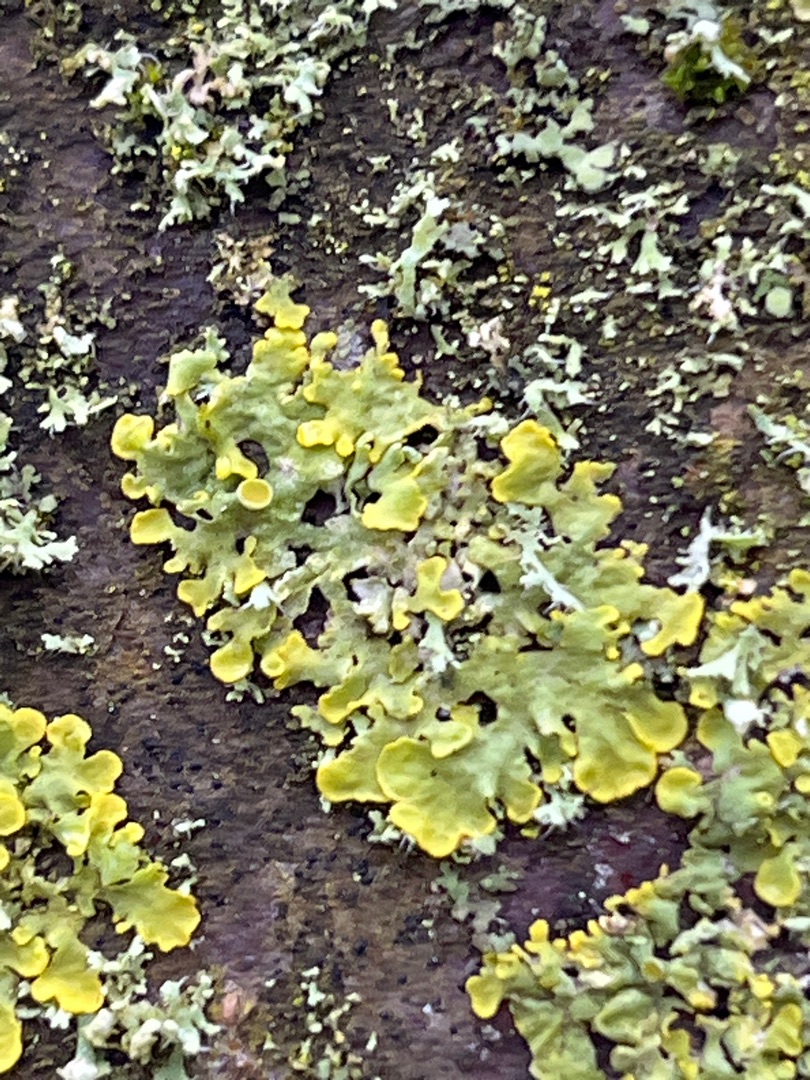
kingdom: Fungi
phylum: Ascomycota
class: Lecanoromycetes
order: Teloschistales
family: Teloschistaceae
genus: Xanthoria
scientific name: Xanthoria parietina
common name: Almindelig væggelav
